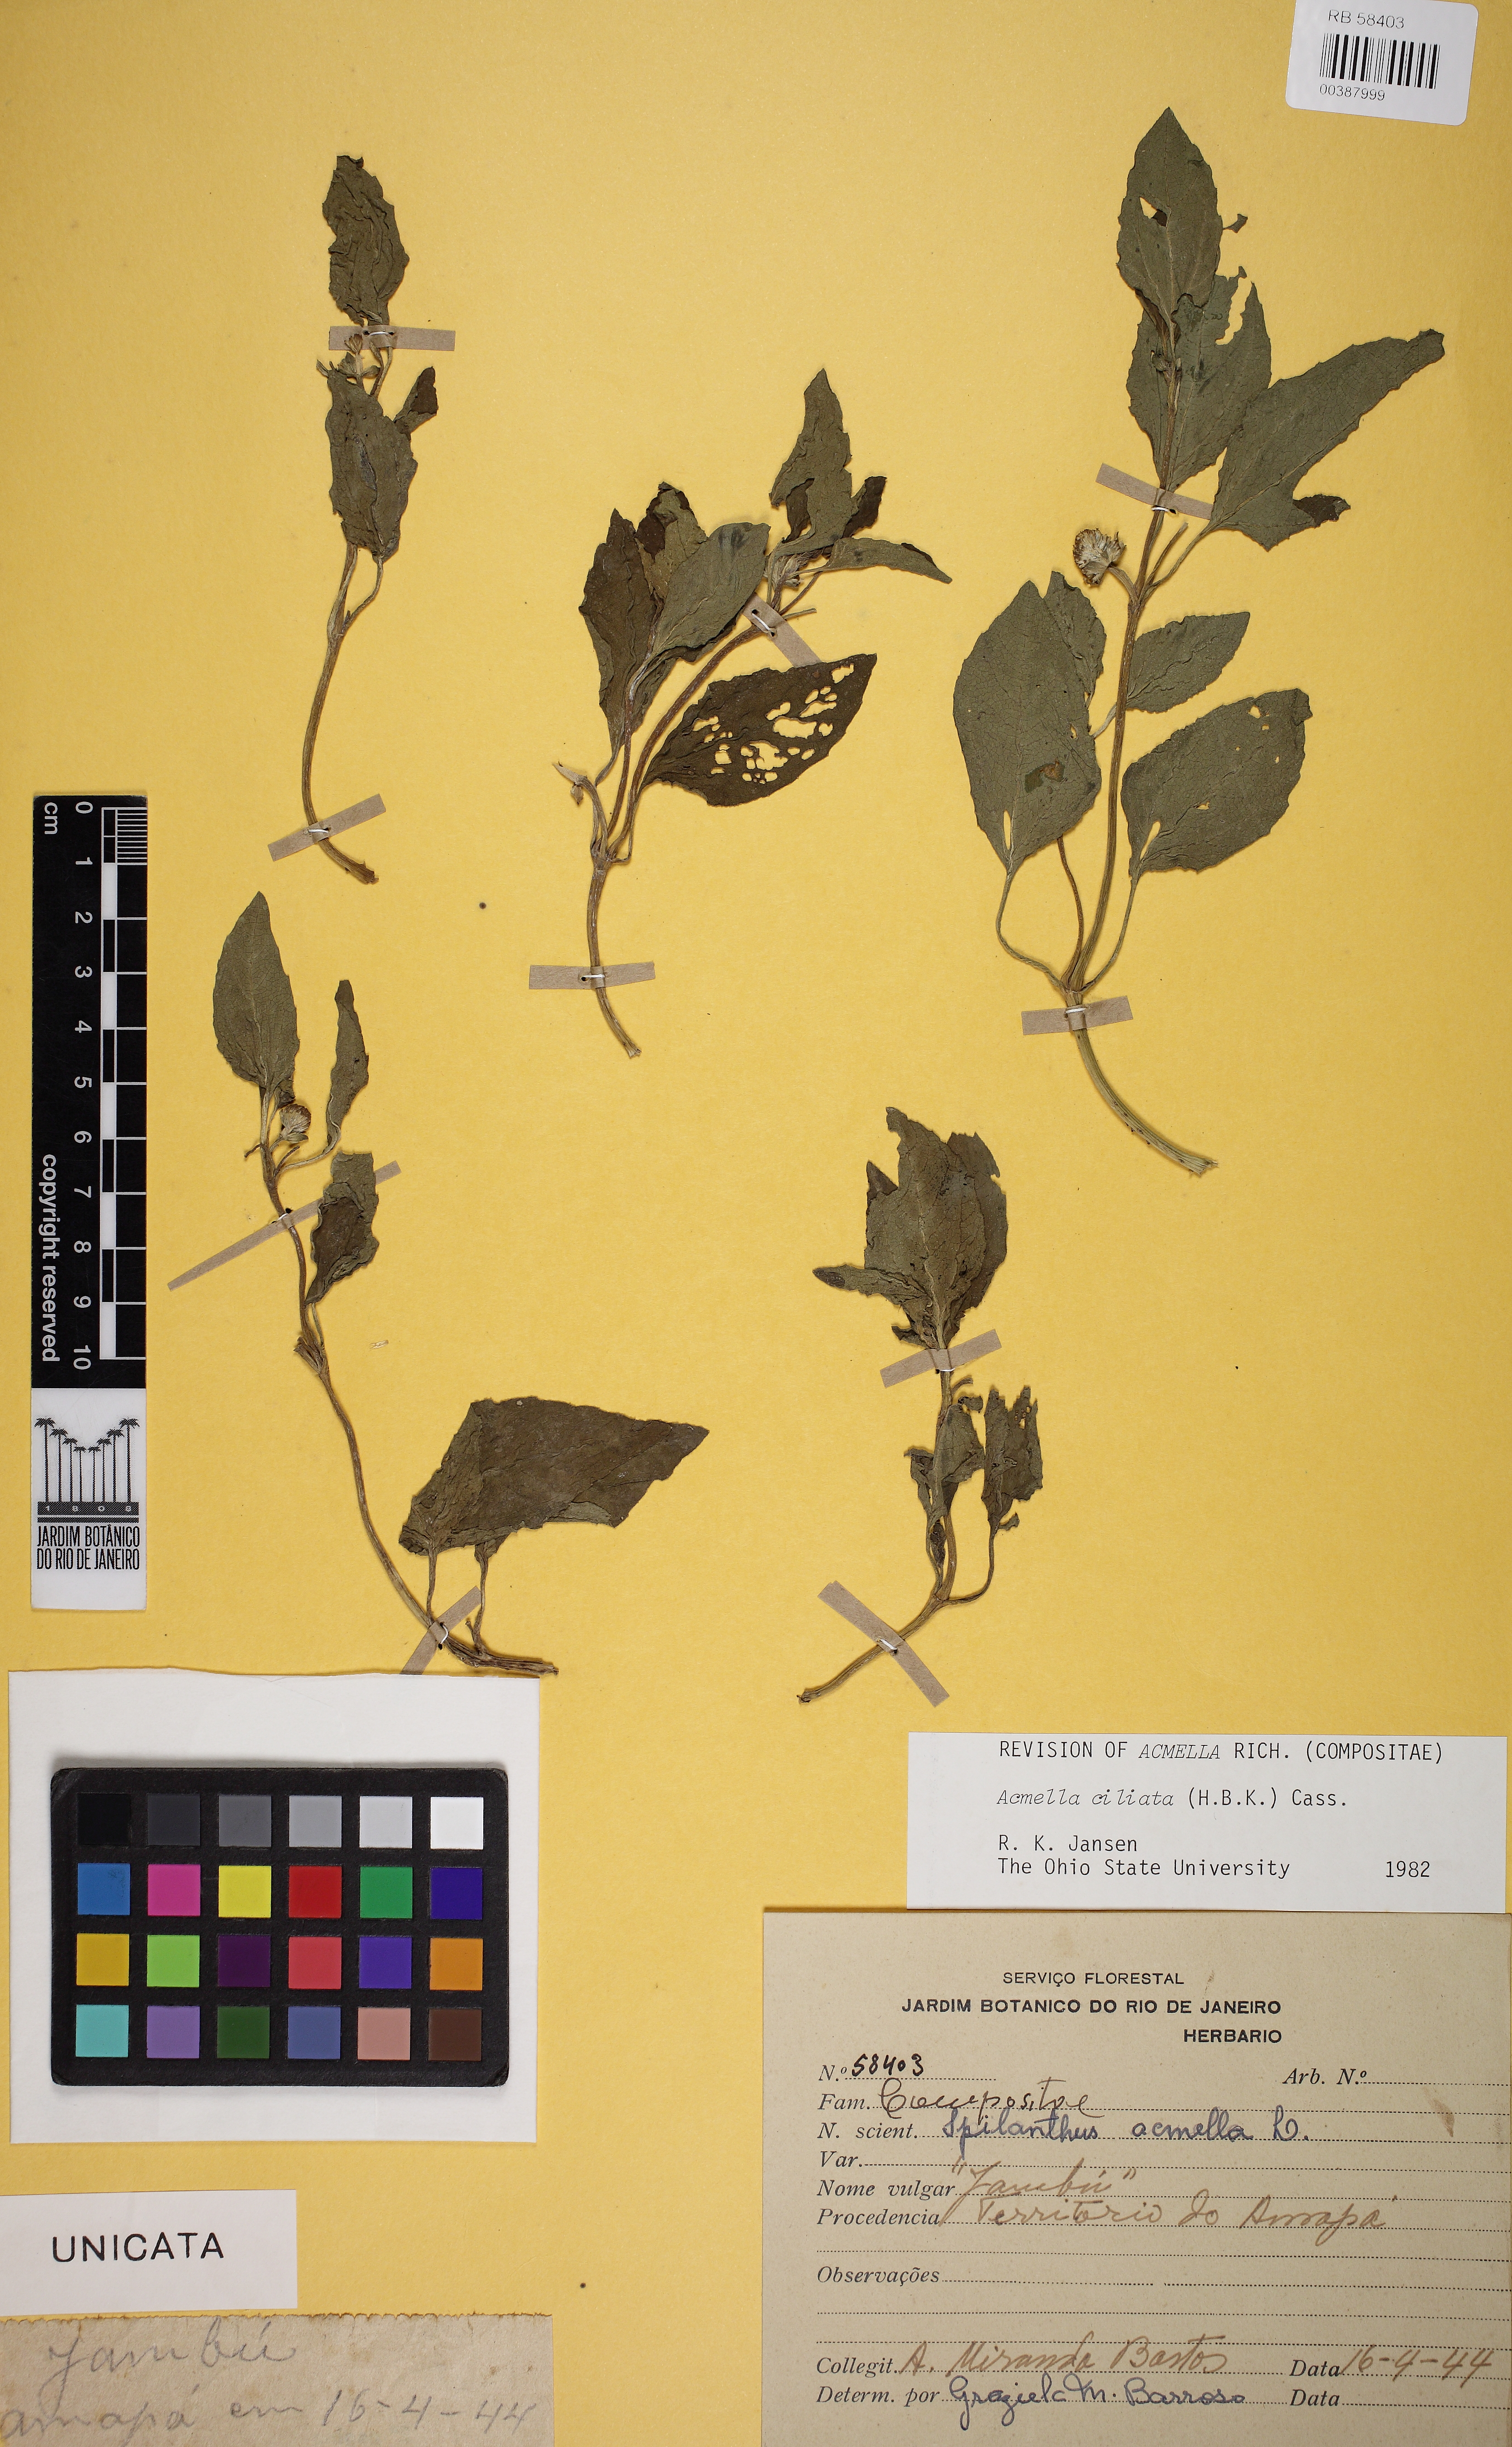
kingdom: Plantae
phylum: Tracheophyta
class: Magnoliopsida
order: Asterales
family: Asteraceae
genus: Acmella
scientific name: Acmella ciliata
